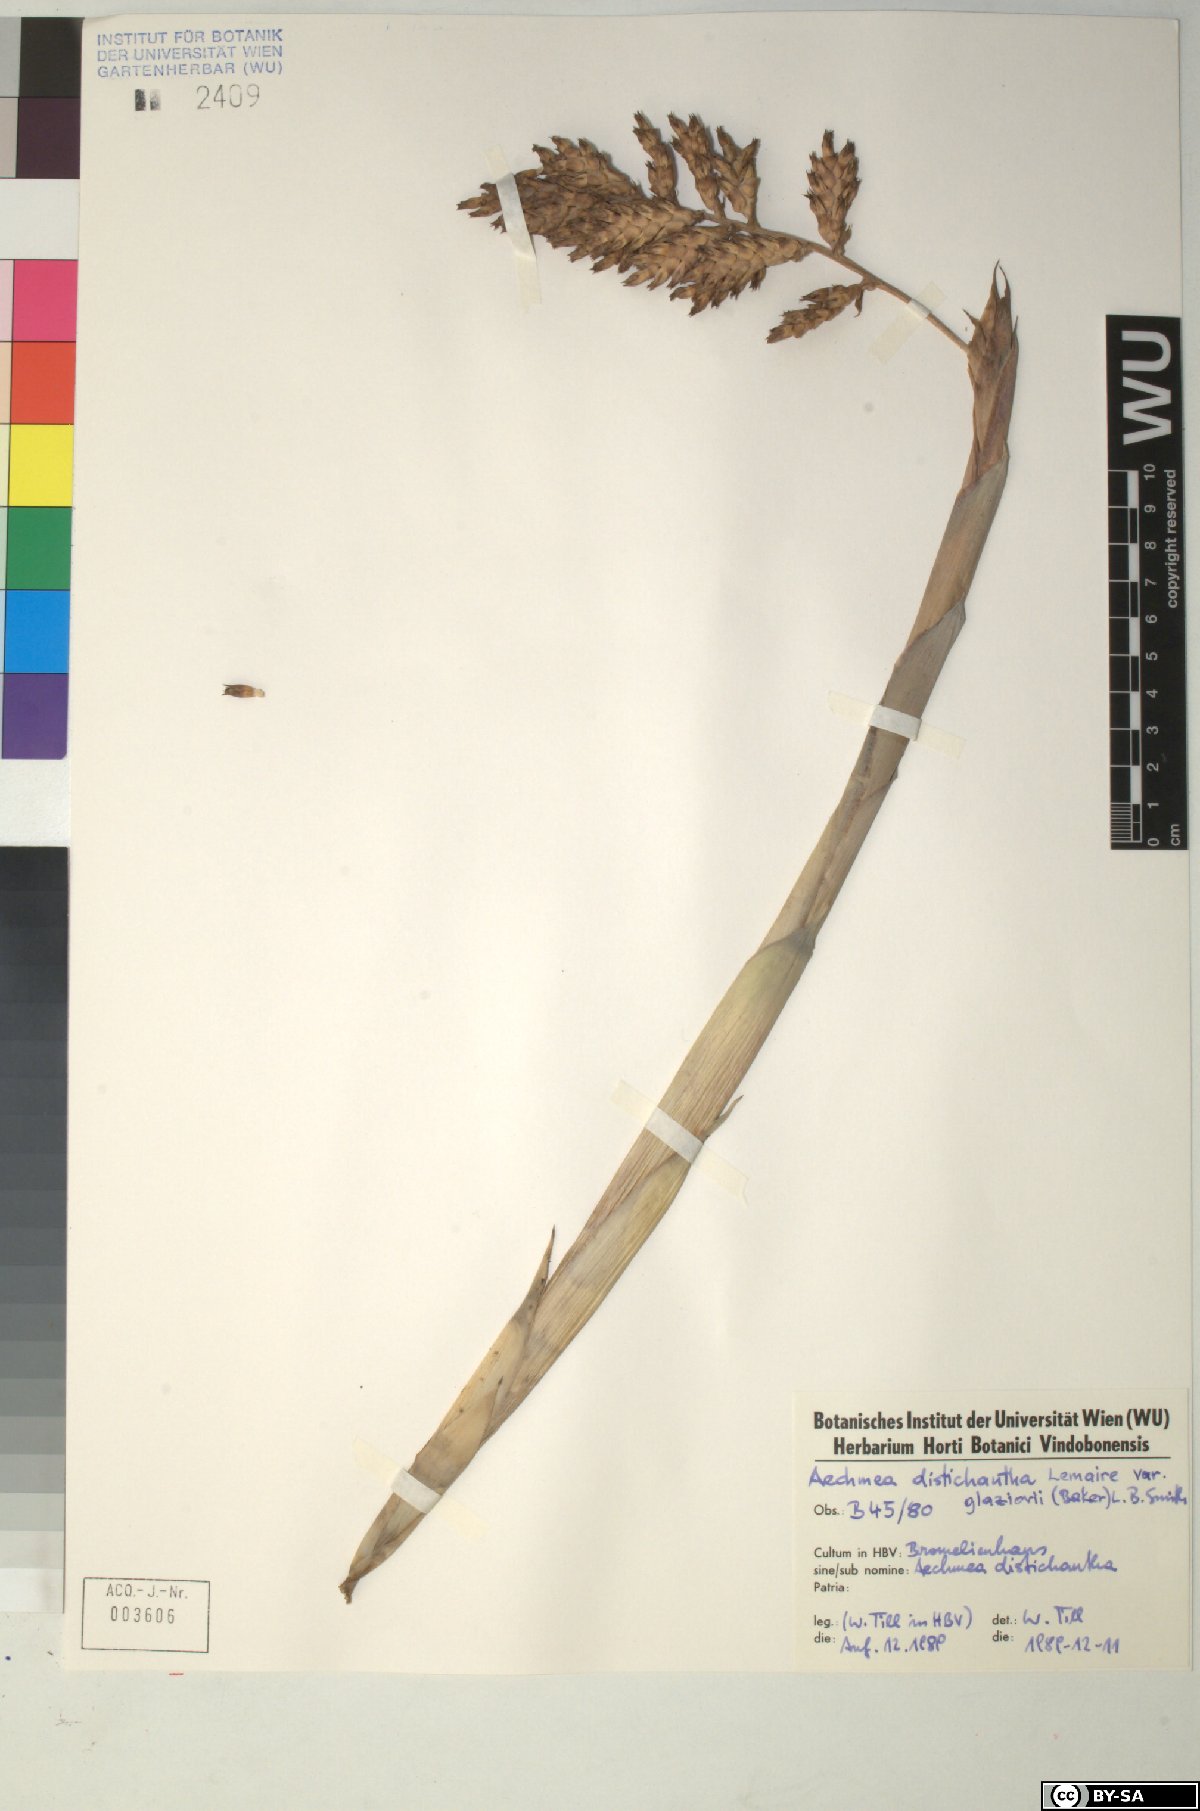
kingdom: Plantae
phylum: Tracheophyta
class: Liliopsida
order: Poales
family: Bromeliaceae
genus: Aechmea
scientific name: Aechmea distichantha
